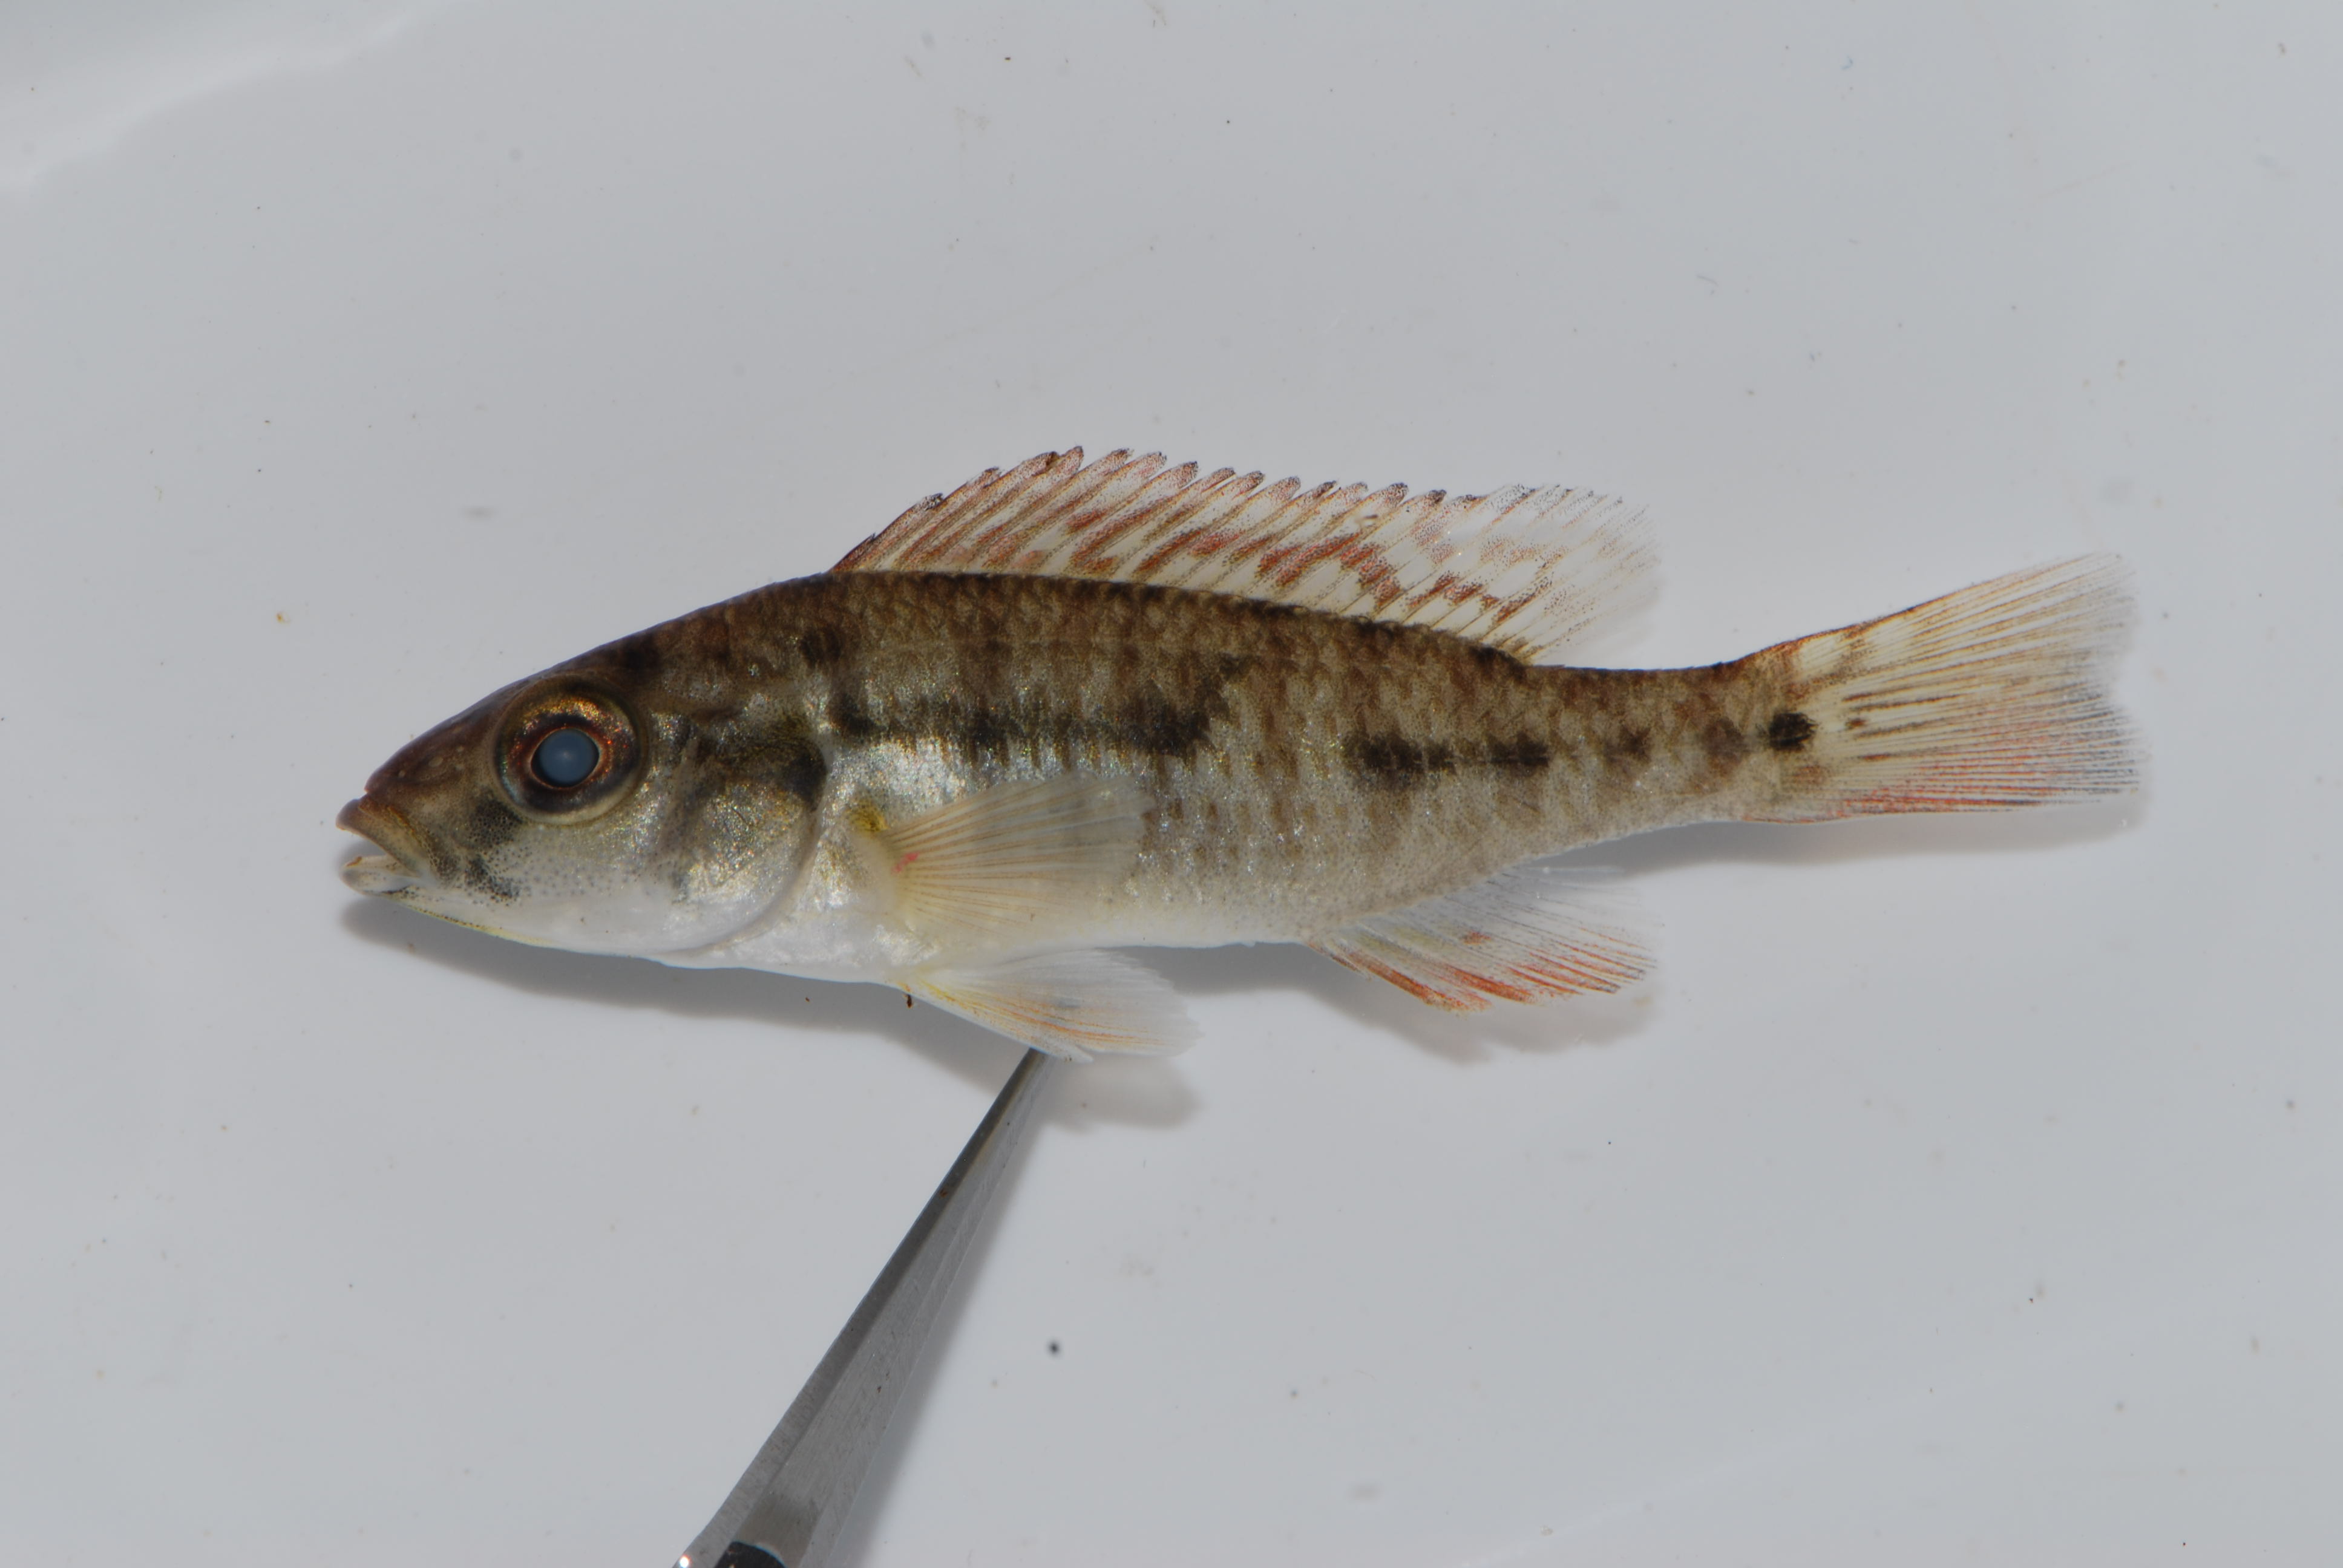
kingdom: Animalia
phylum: Chordata
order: Perciformes
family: Cichlidae
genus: Pharyngochromis
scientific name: Pharyngochromis acuticeps
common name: Zambezi happy
